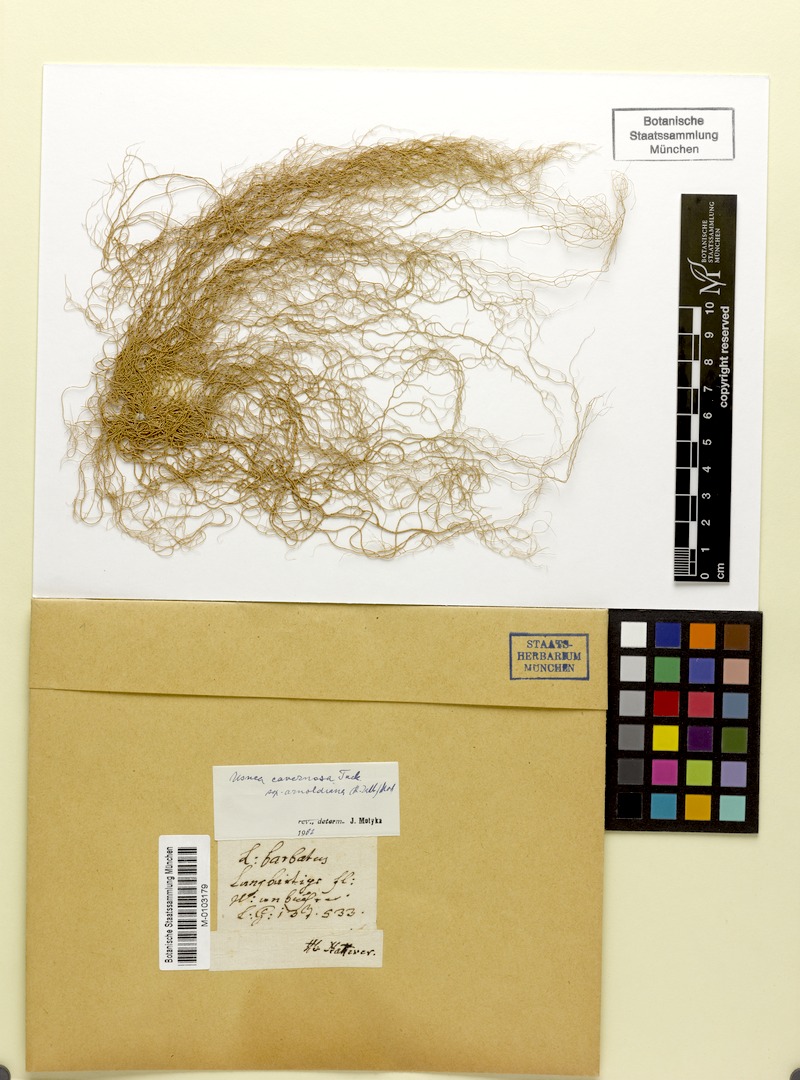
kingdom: Fungi
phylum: Ascomycota
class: Lecanoromycetes
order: Lecanorales
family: Parmeliaceae
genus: Usnea
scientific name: Usnea cavernosa
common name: Pitted beard lichen
